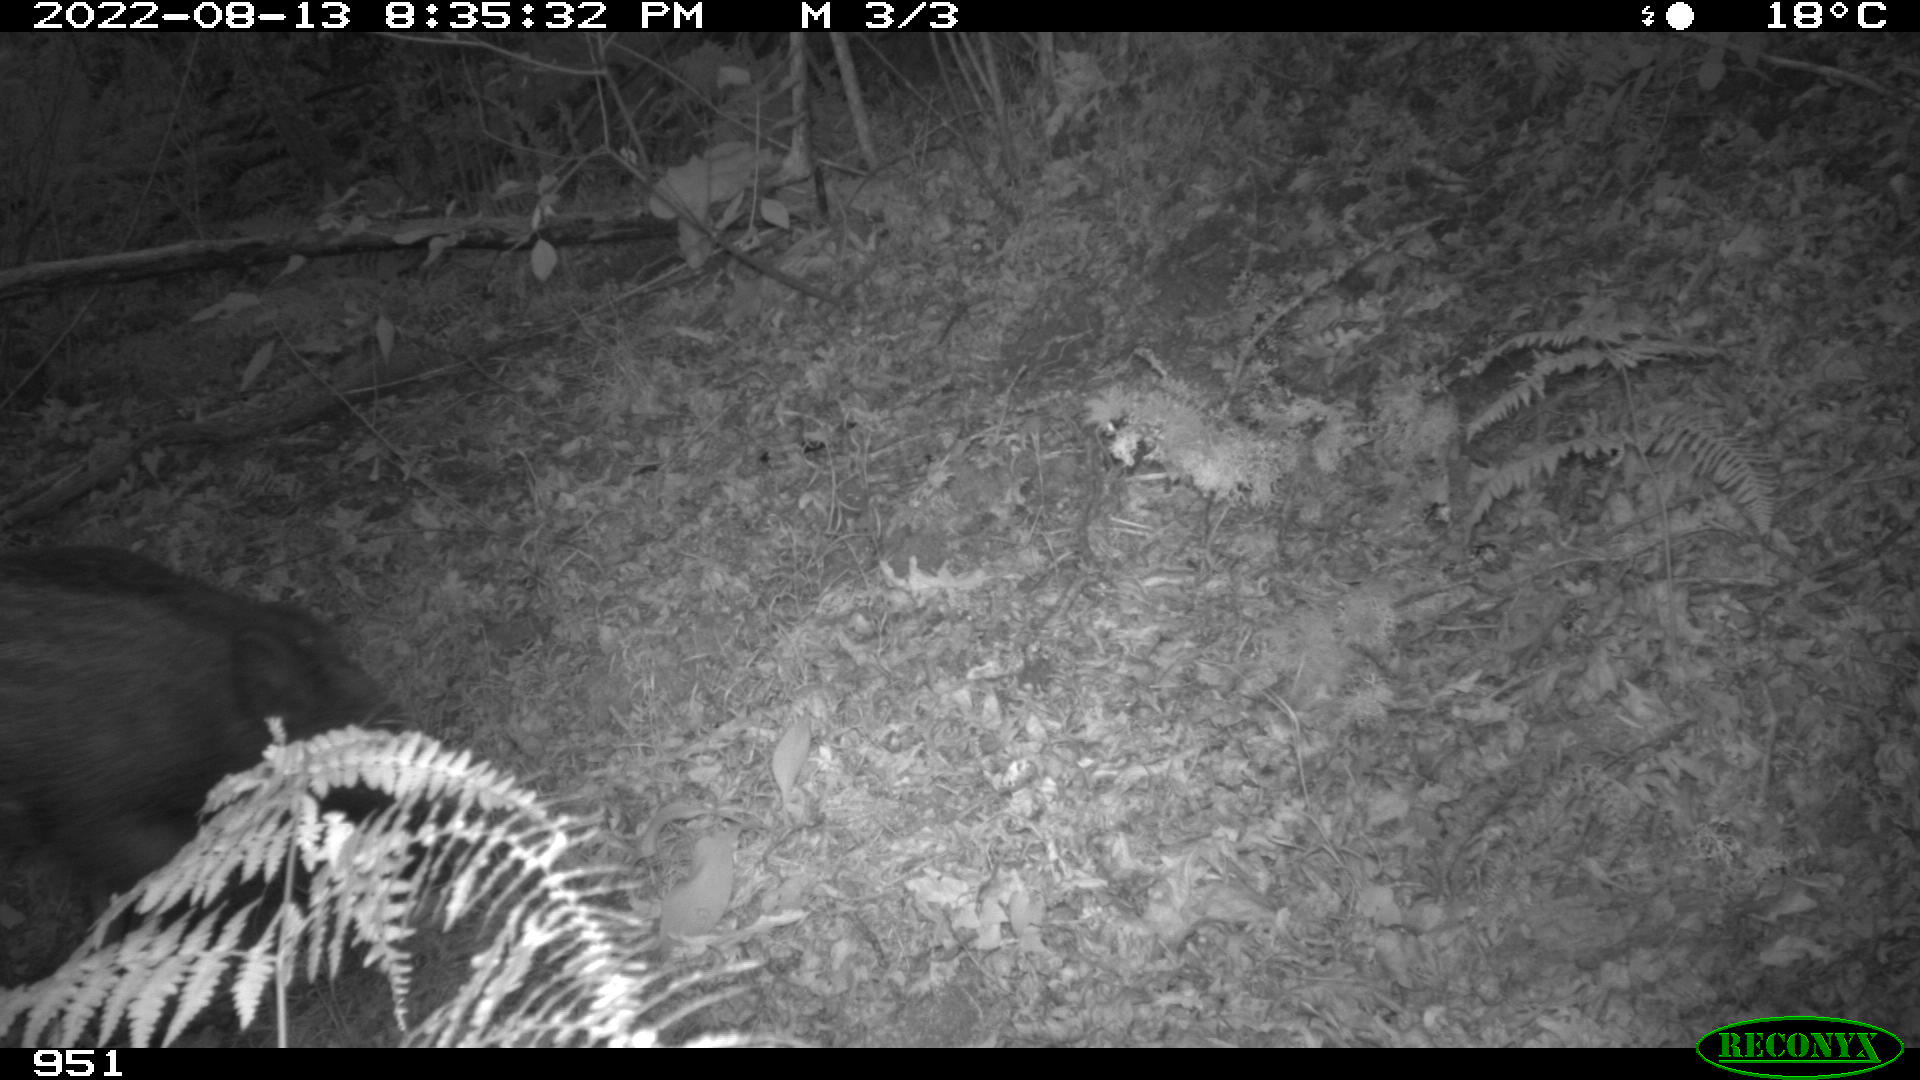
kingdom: Animalia
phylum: Chordata
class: Mammalia
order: Artiodactyla
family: Suidae
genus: Sus
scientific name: Sus scrofa
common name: Wild boar
